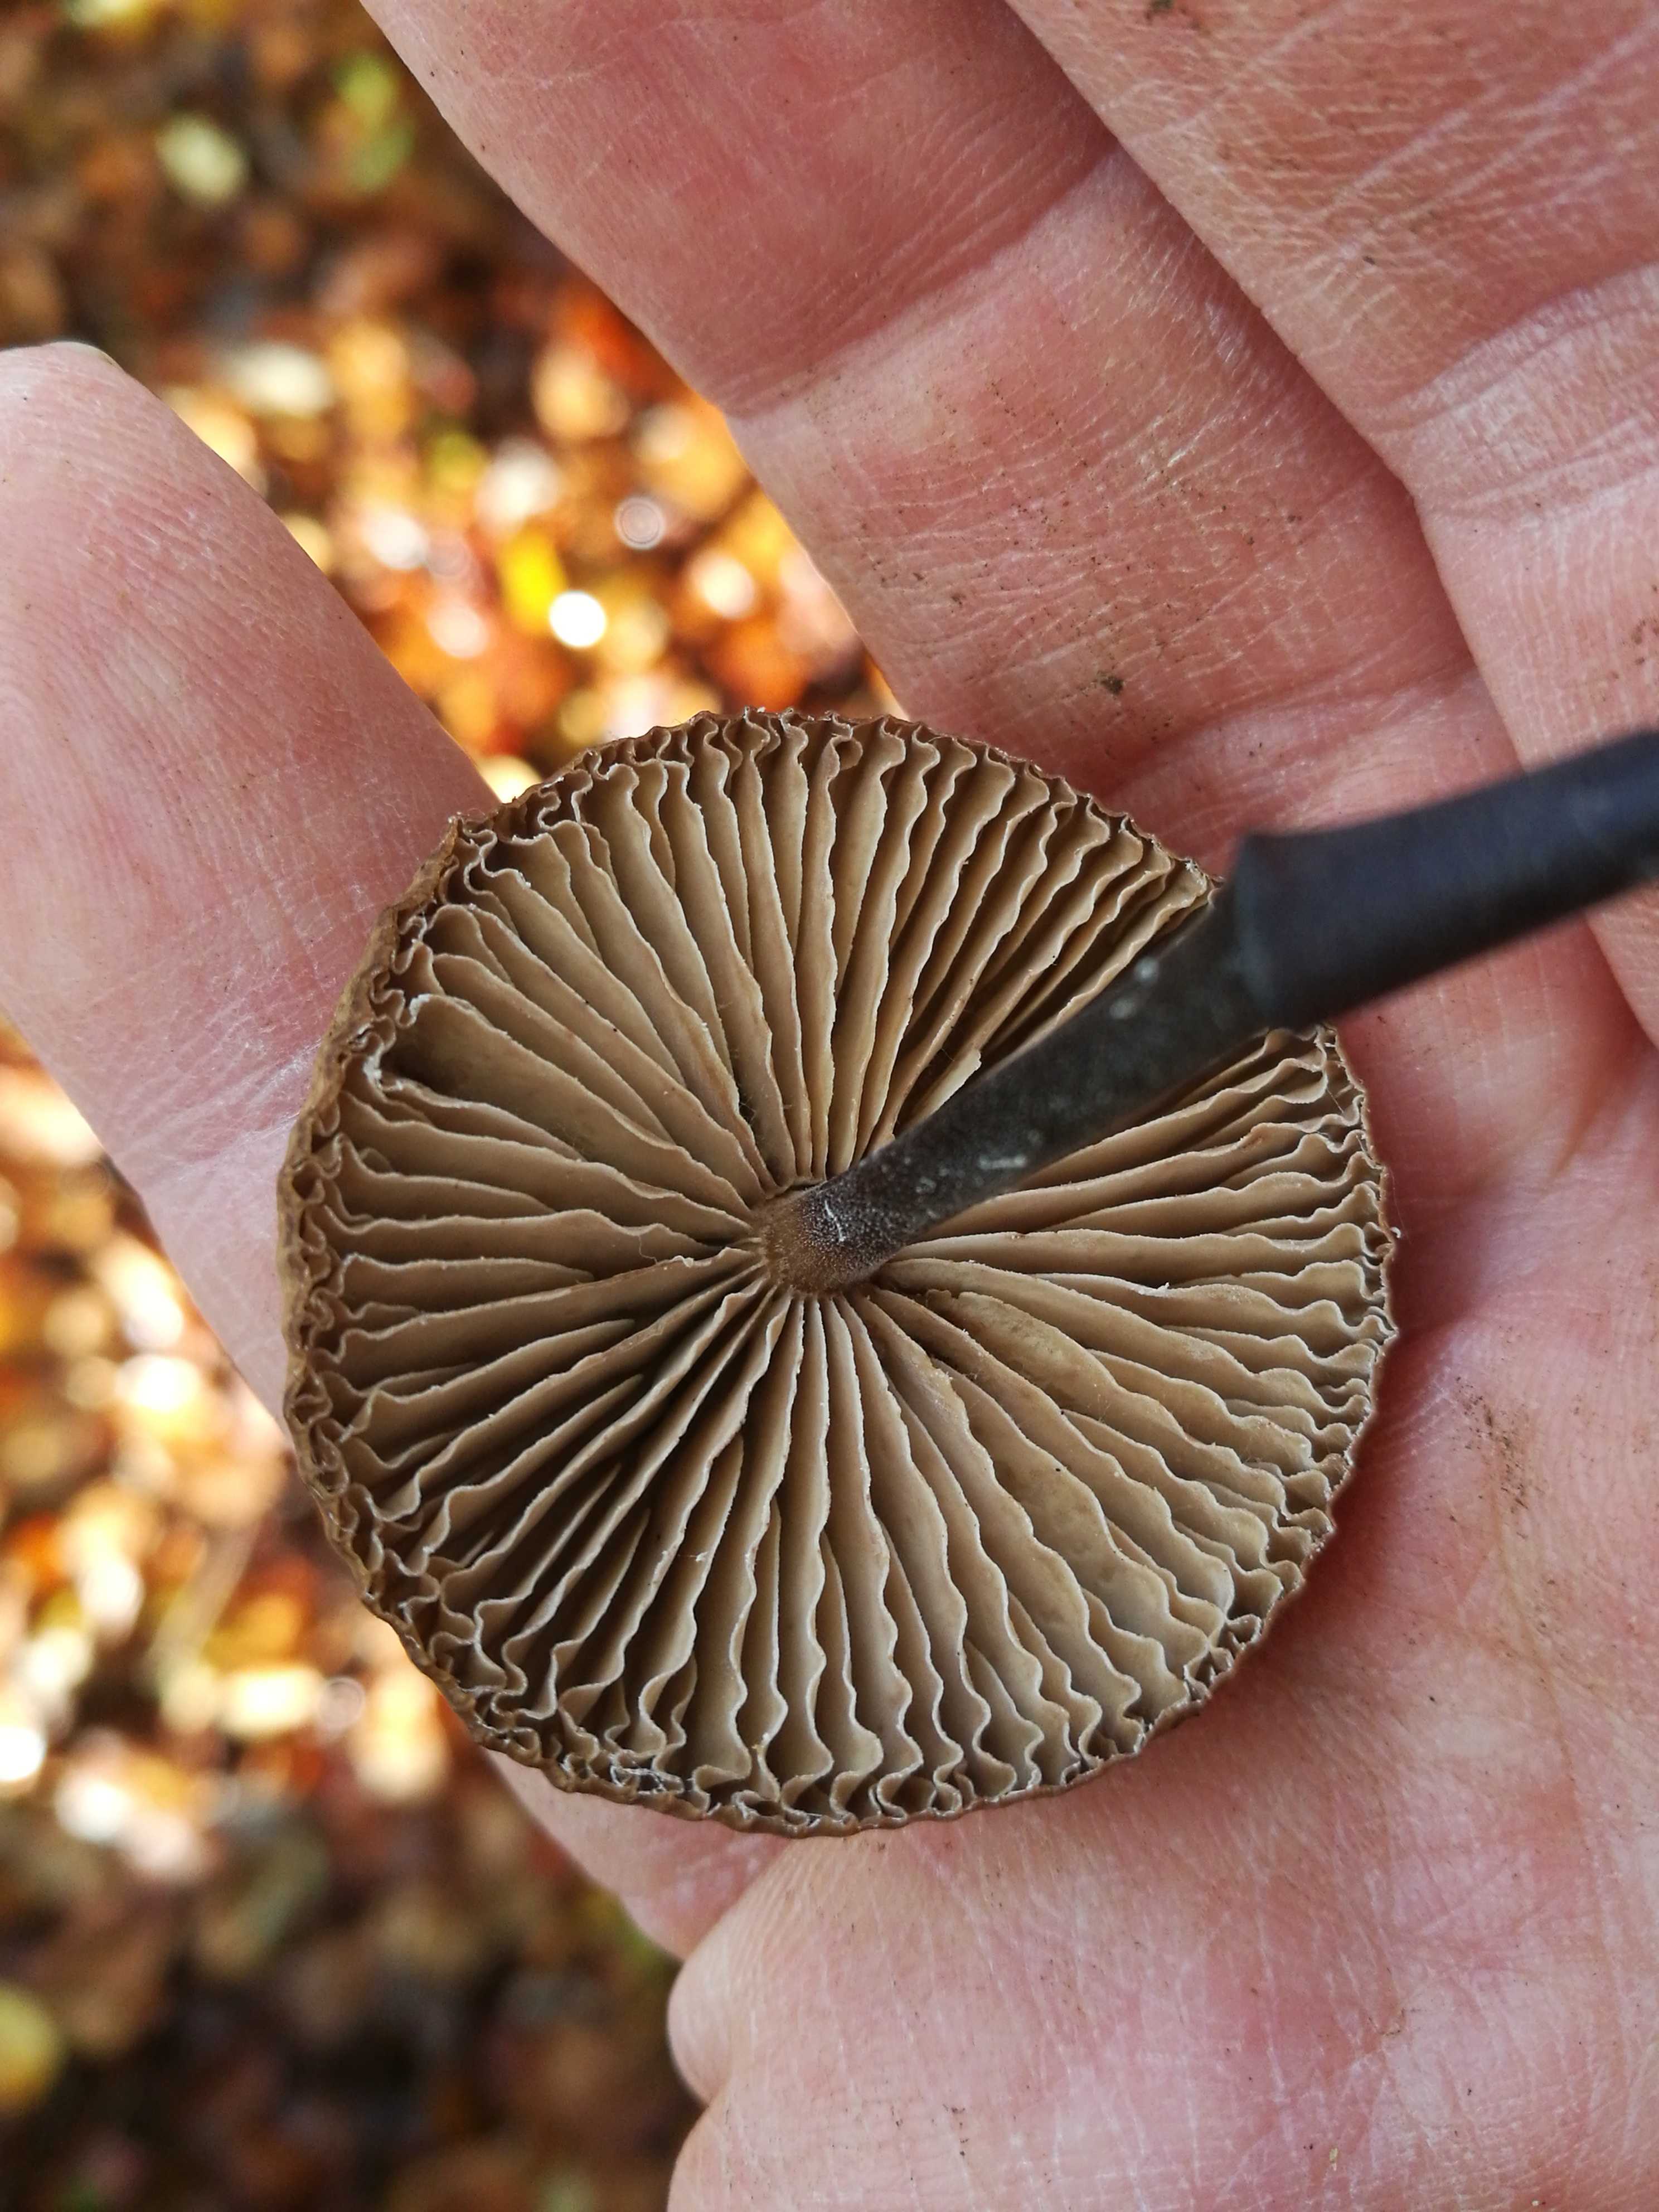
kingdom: Fungi
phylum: Basidiomycota
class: Agaricomycetes
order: Agaricales
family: Omphalotaceae
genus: Mycetinis
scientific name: Mycetinis alliaceus
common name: stor løghat
